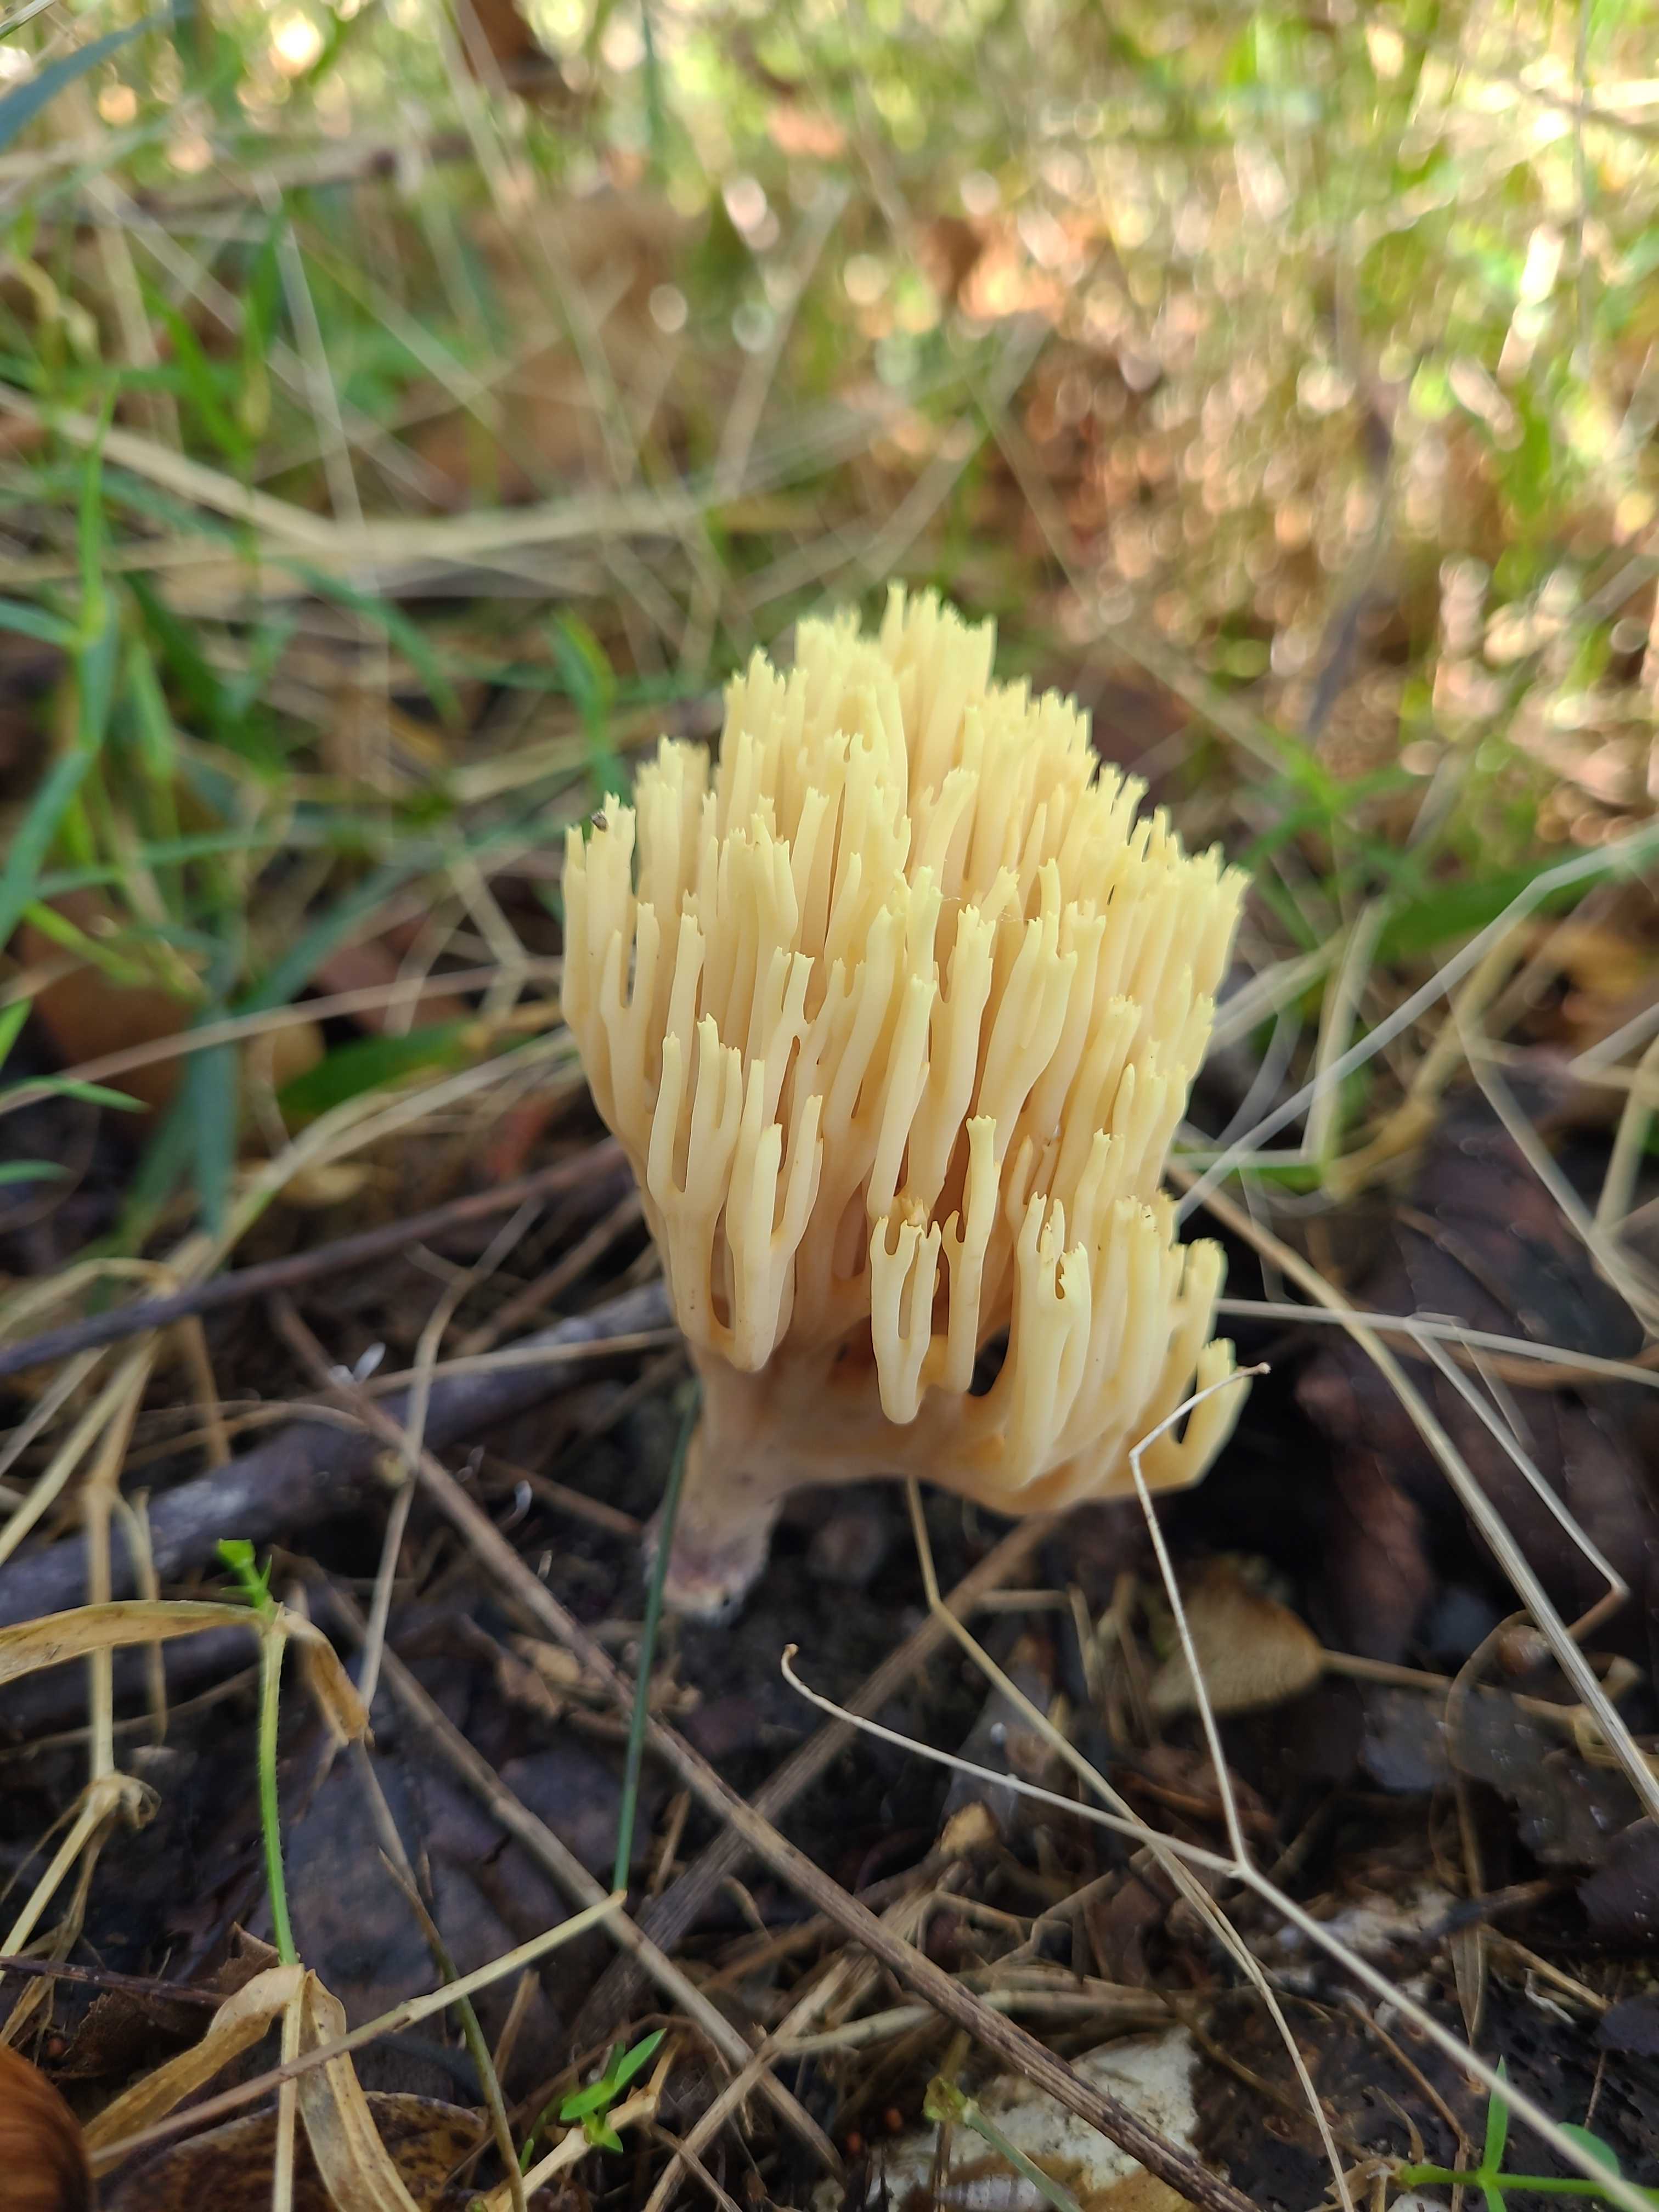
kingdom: Fungi
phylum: Basidiomycota
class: Agaricomycetes
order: Gomphales
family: Gomphaceae
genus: Ramaria
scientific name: Ramaria stricta
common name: rank koralsvamp
